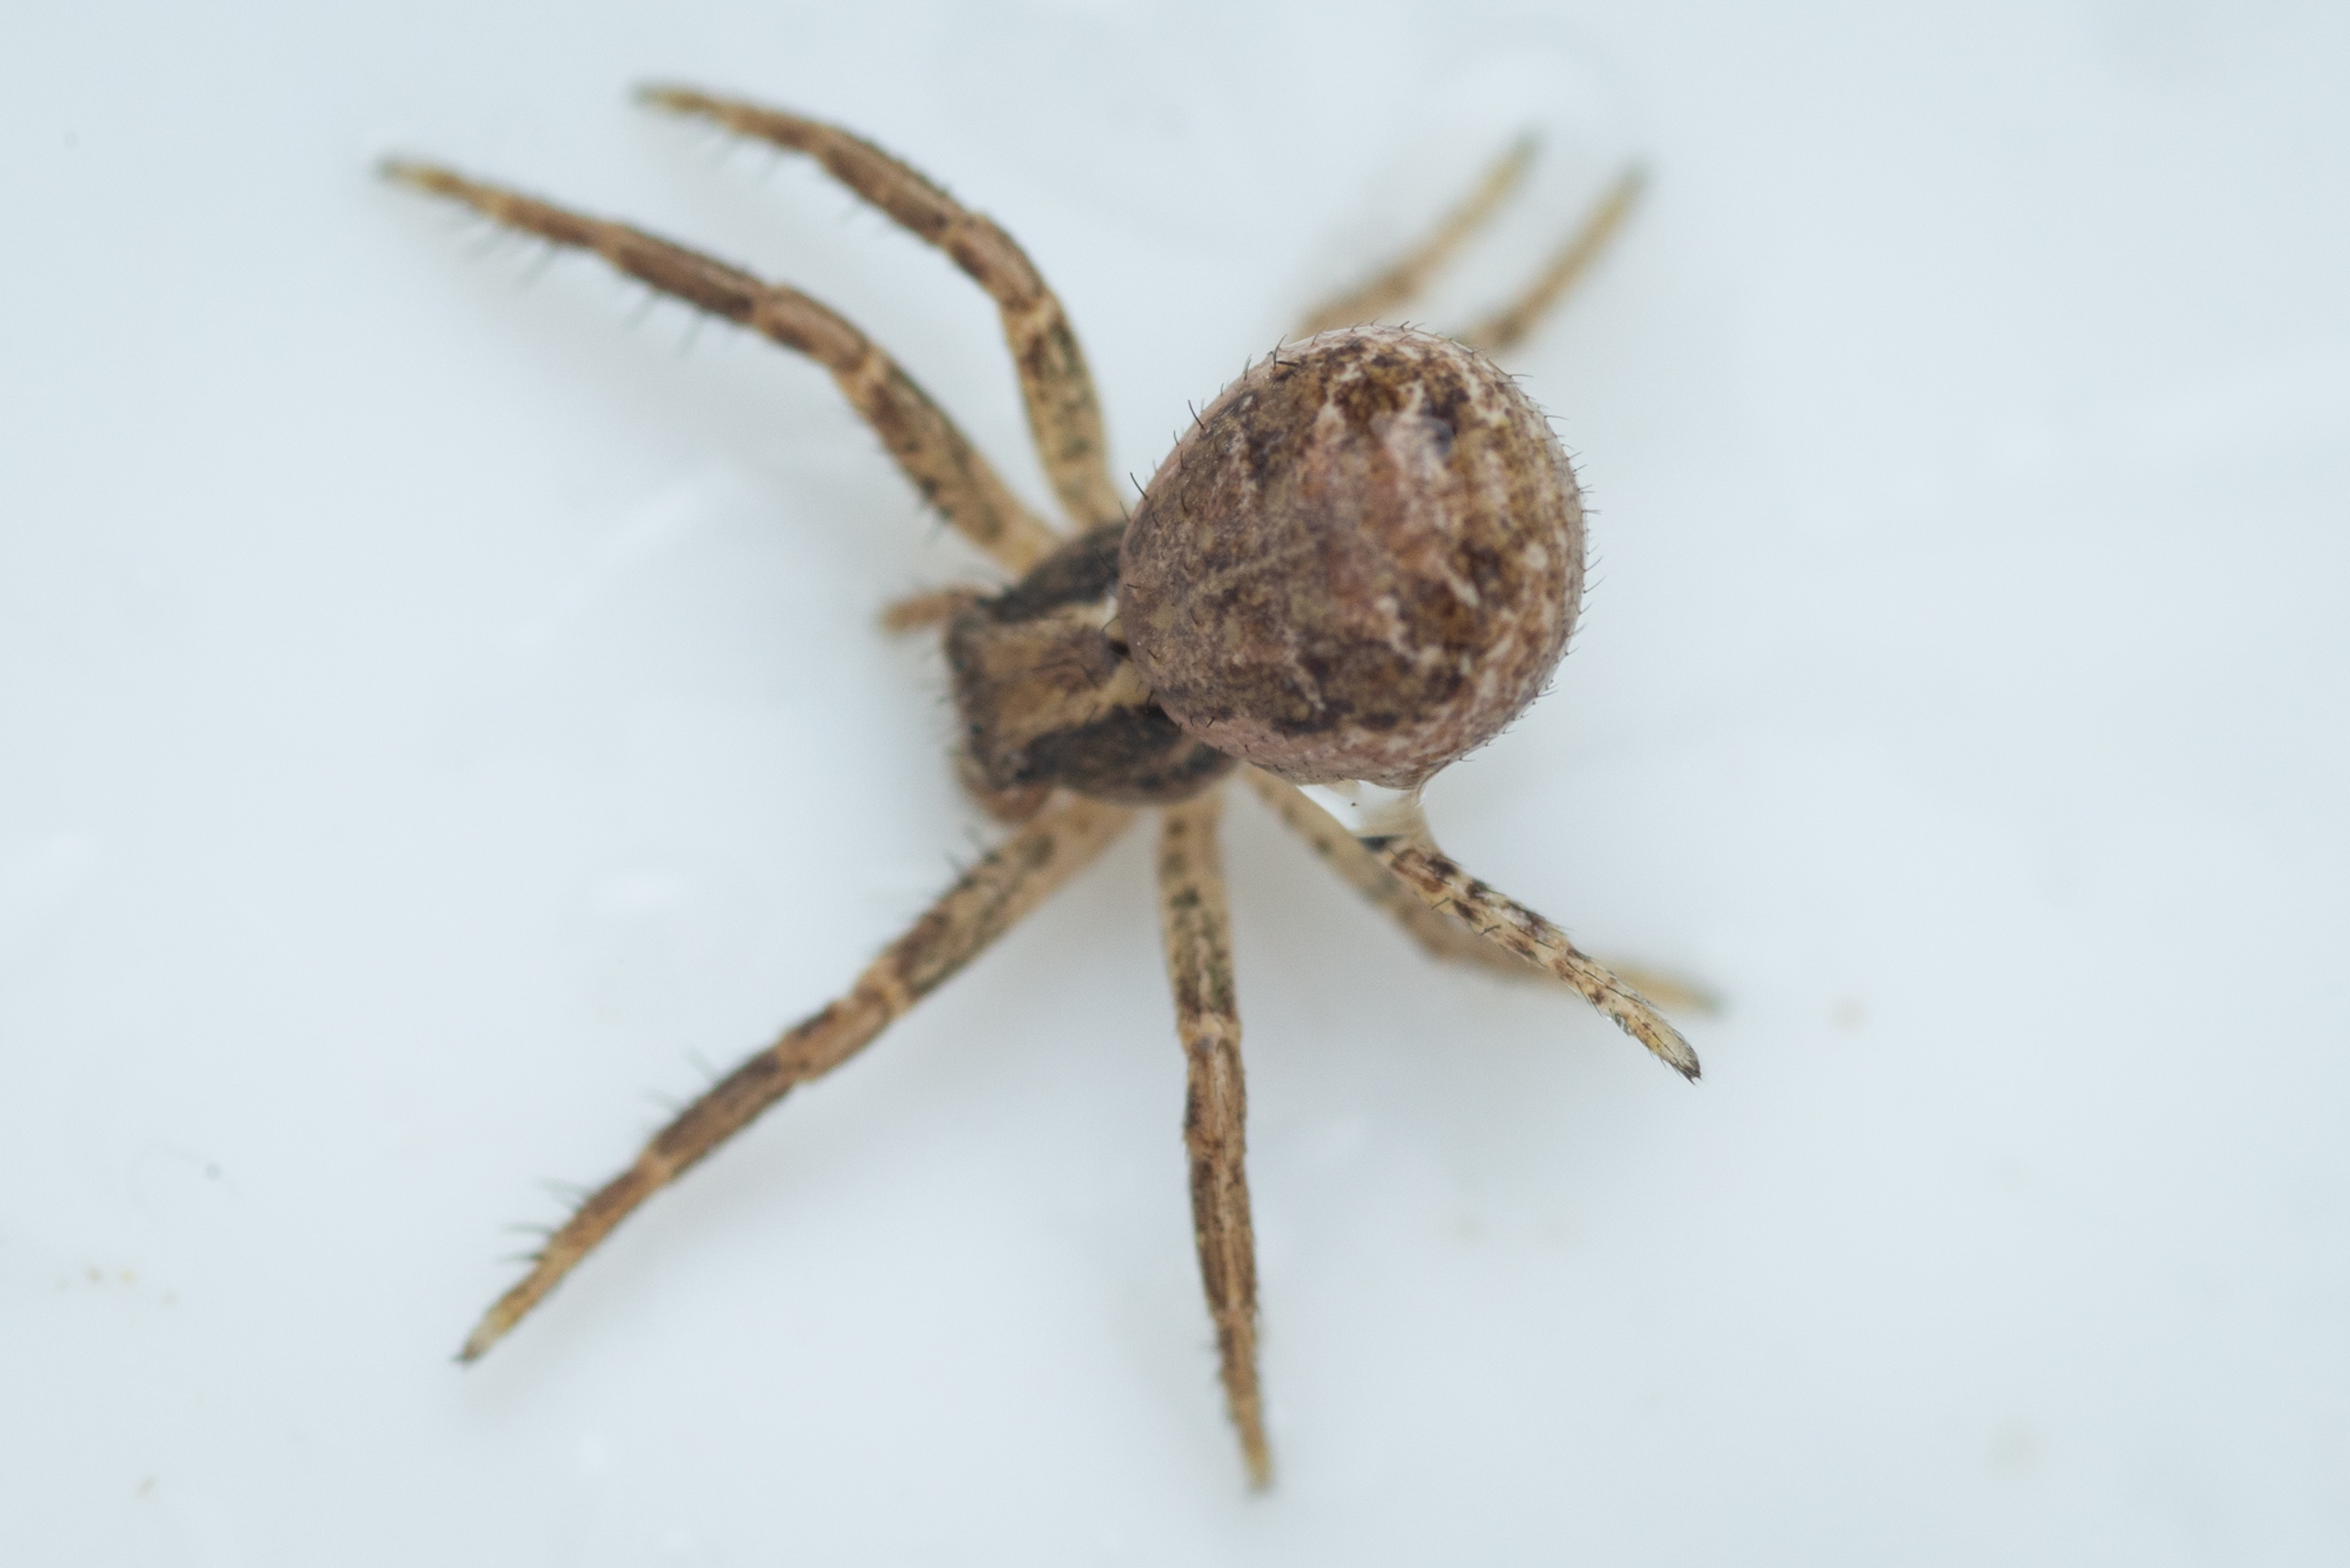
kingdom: Animalia
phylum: Arthropoda
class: Arachnida
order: Araneae
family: Thomisidae
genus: Xysticus
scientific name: Xysticus
